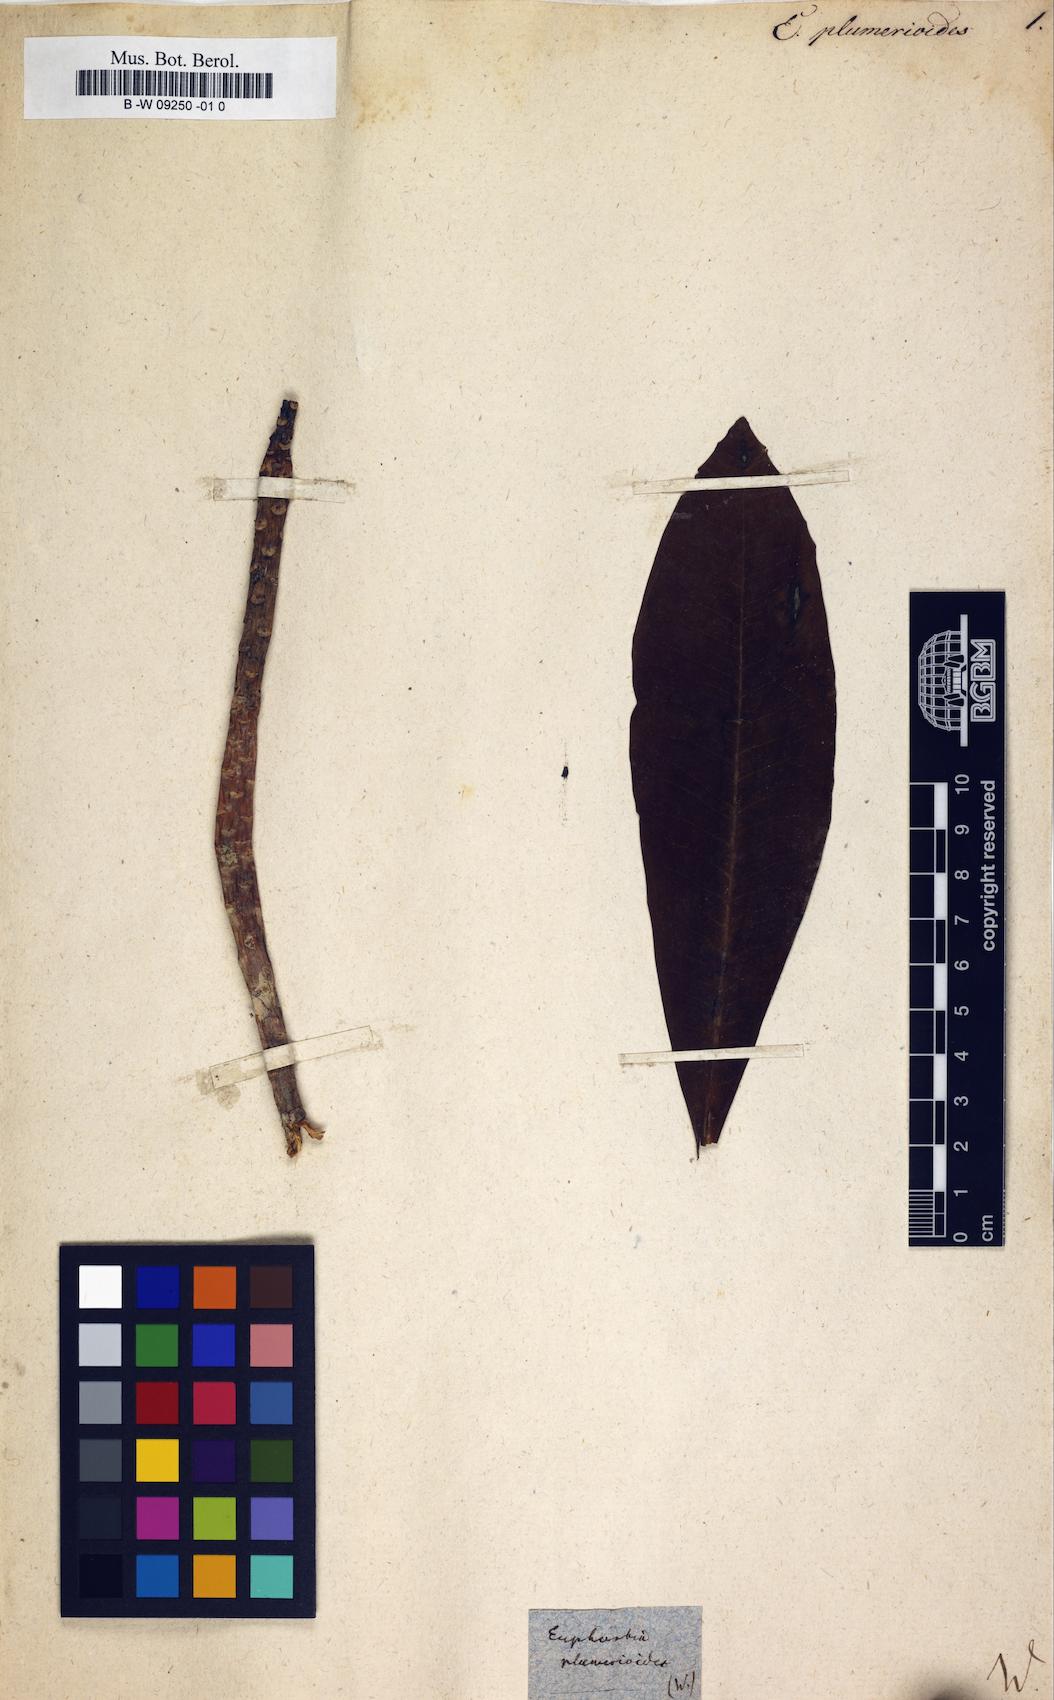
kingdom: Plantae
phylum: Tracheophyta
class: Magnoliopsida
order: Malpighiales
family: Euphorbiaceae
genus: Euphorbia
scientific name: Euphorbia plumerioides
